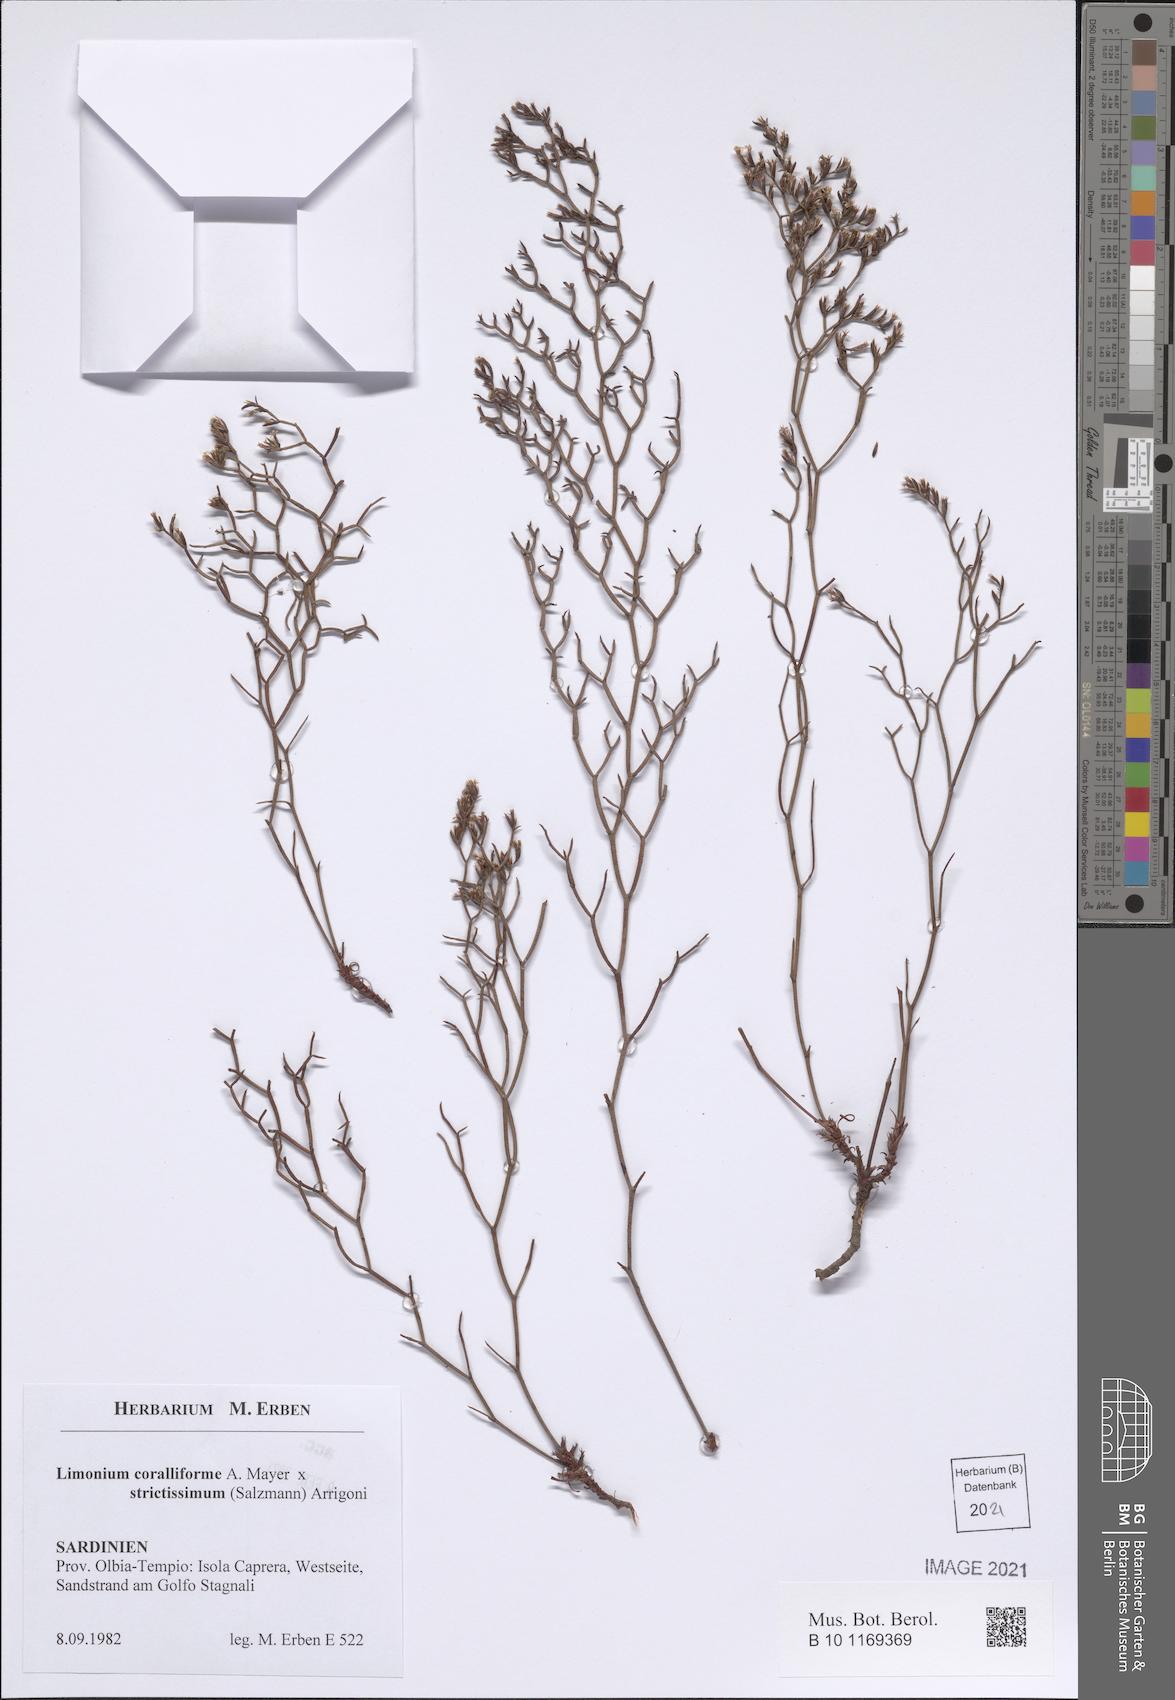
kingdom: Plantae
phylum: Tracheophyta
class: Magnoliopsida
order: Caryophyllales
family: Plumbaginaceae
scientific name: Plumbaginaceae
